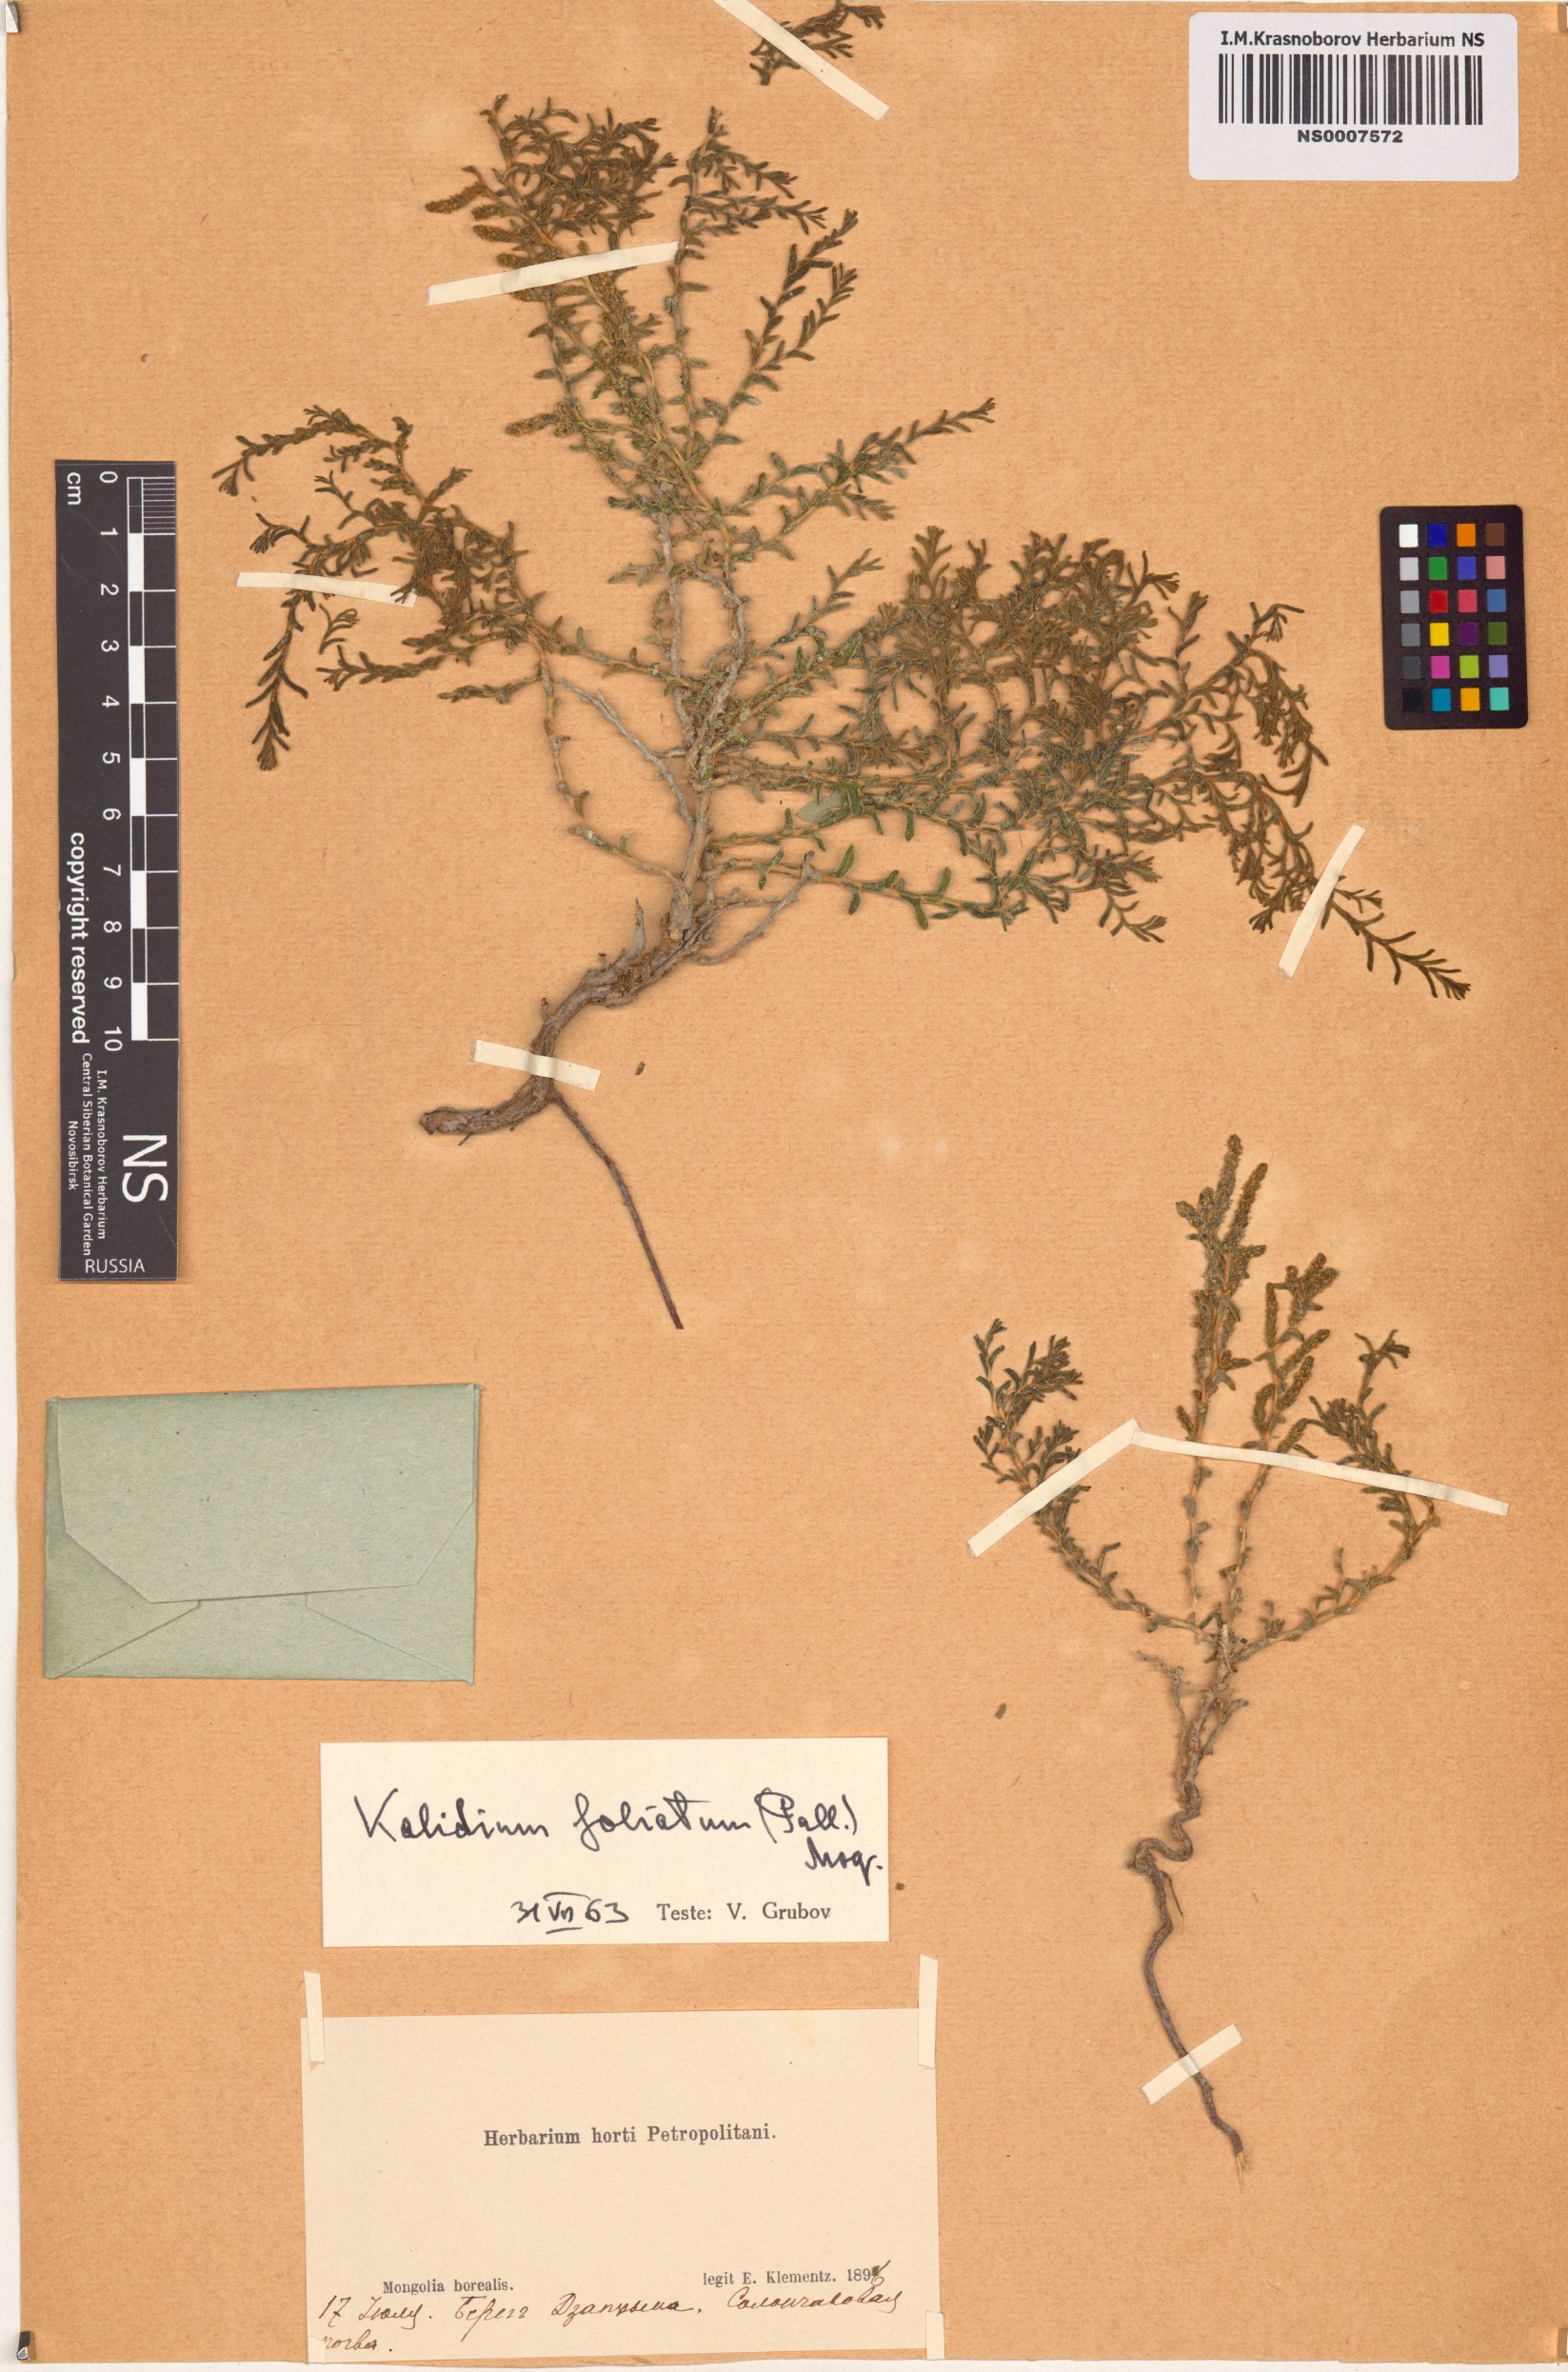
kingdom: Plantae
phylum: Tracheophyta
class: Magnoliopsida
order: Caryophyllales
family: Amaranthaceae
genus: Kalidium
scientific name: Kalidium foliatum
